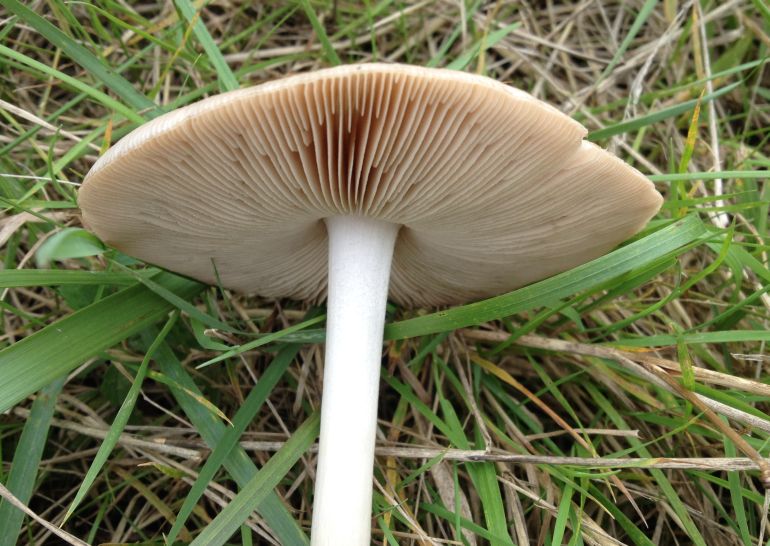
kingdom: Fungi
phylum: Basidiomycota
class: Agaricomycetes
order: Agaricales
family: Pluteaceae
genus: Volvopluteus
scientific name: Volvopluteus gloiocephalus
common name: høj posesvamp
